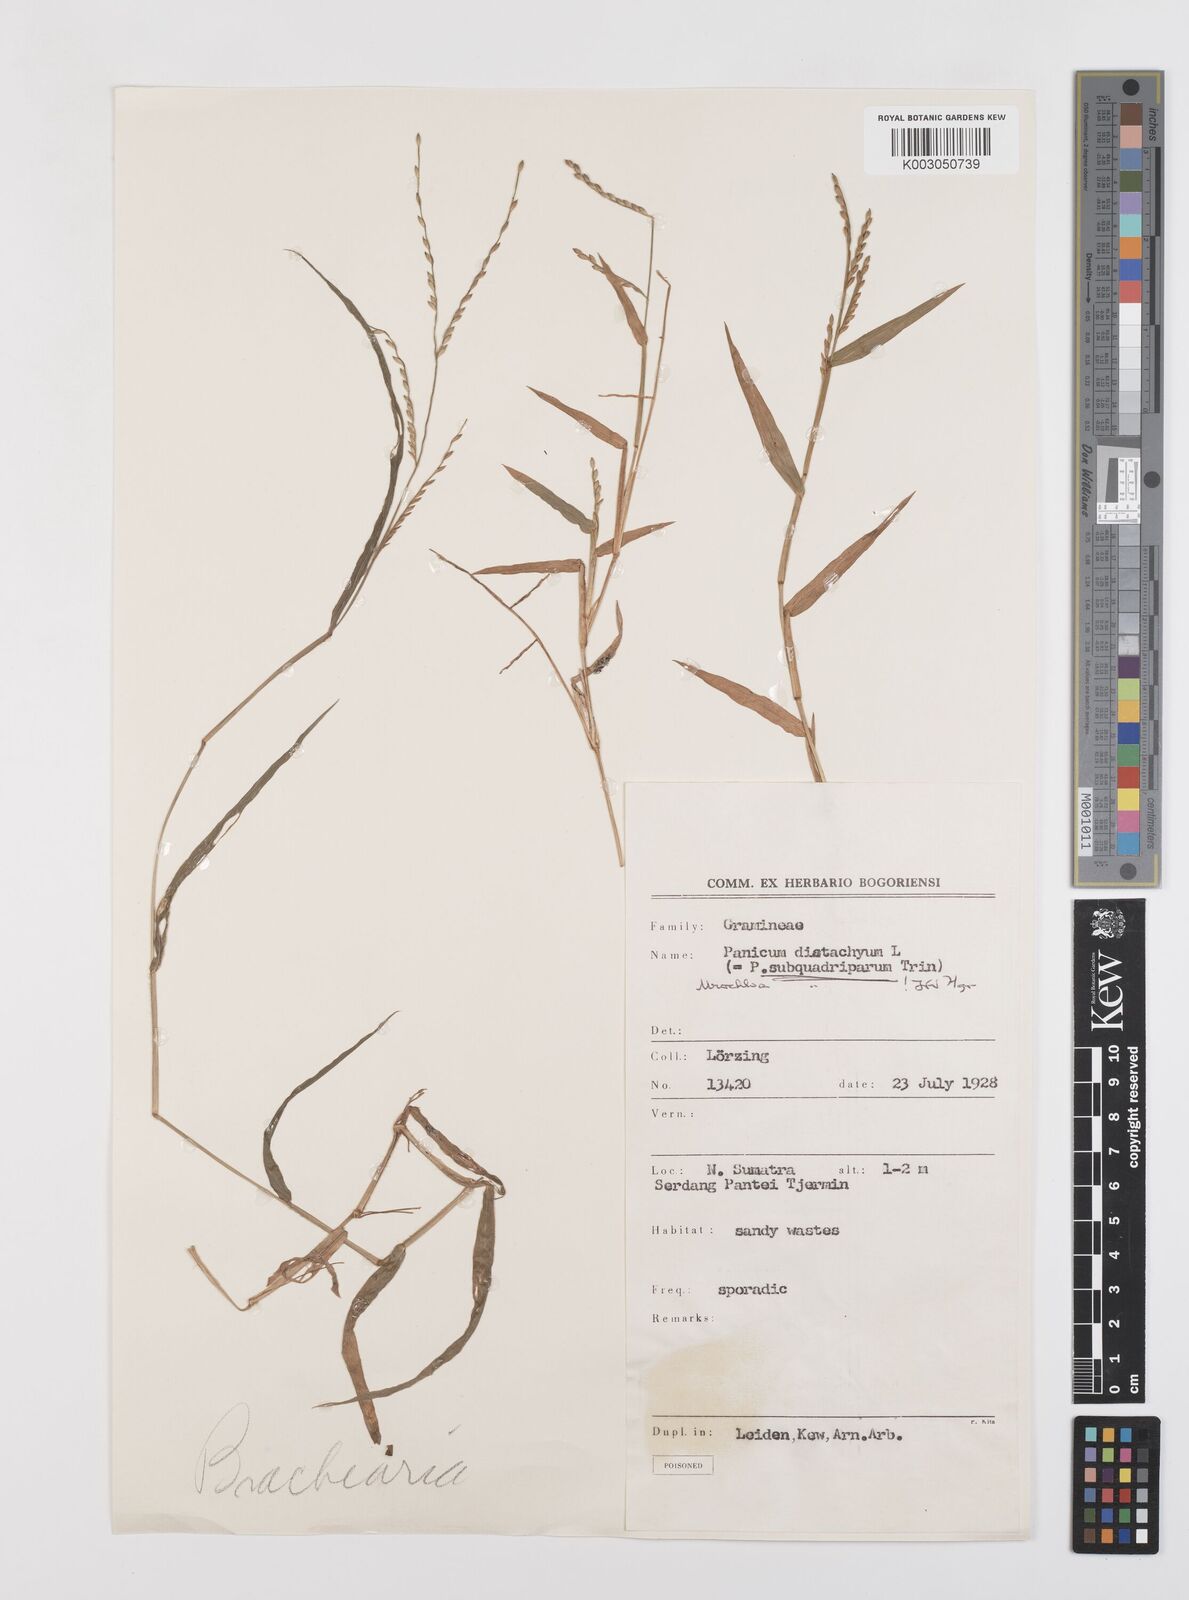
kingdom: Plantae
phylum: Tracheophyta
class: Liliopsida
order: Poales
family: Poaceae
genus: Urochloa
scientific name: Urochloa subquadripara
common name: Armgrass millet
